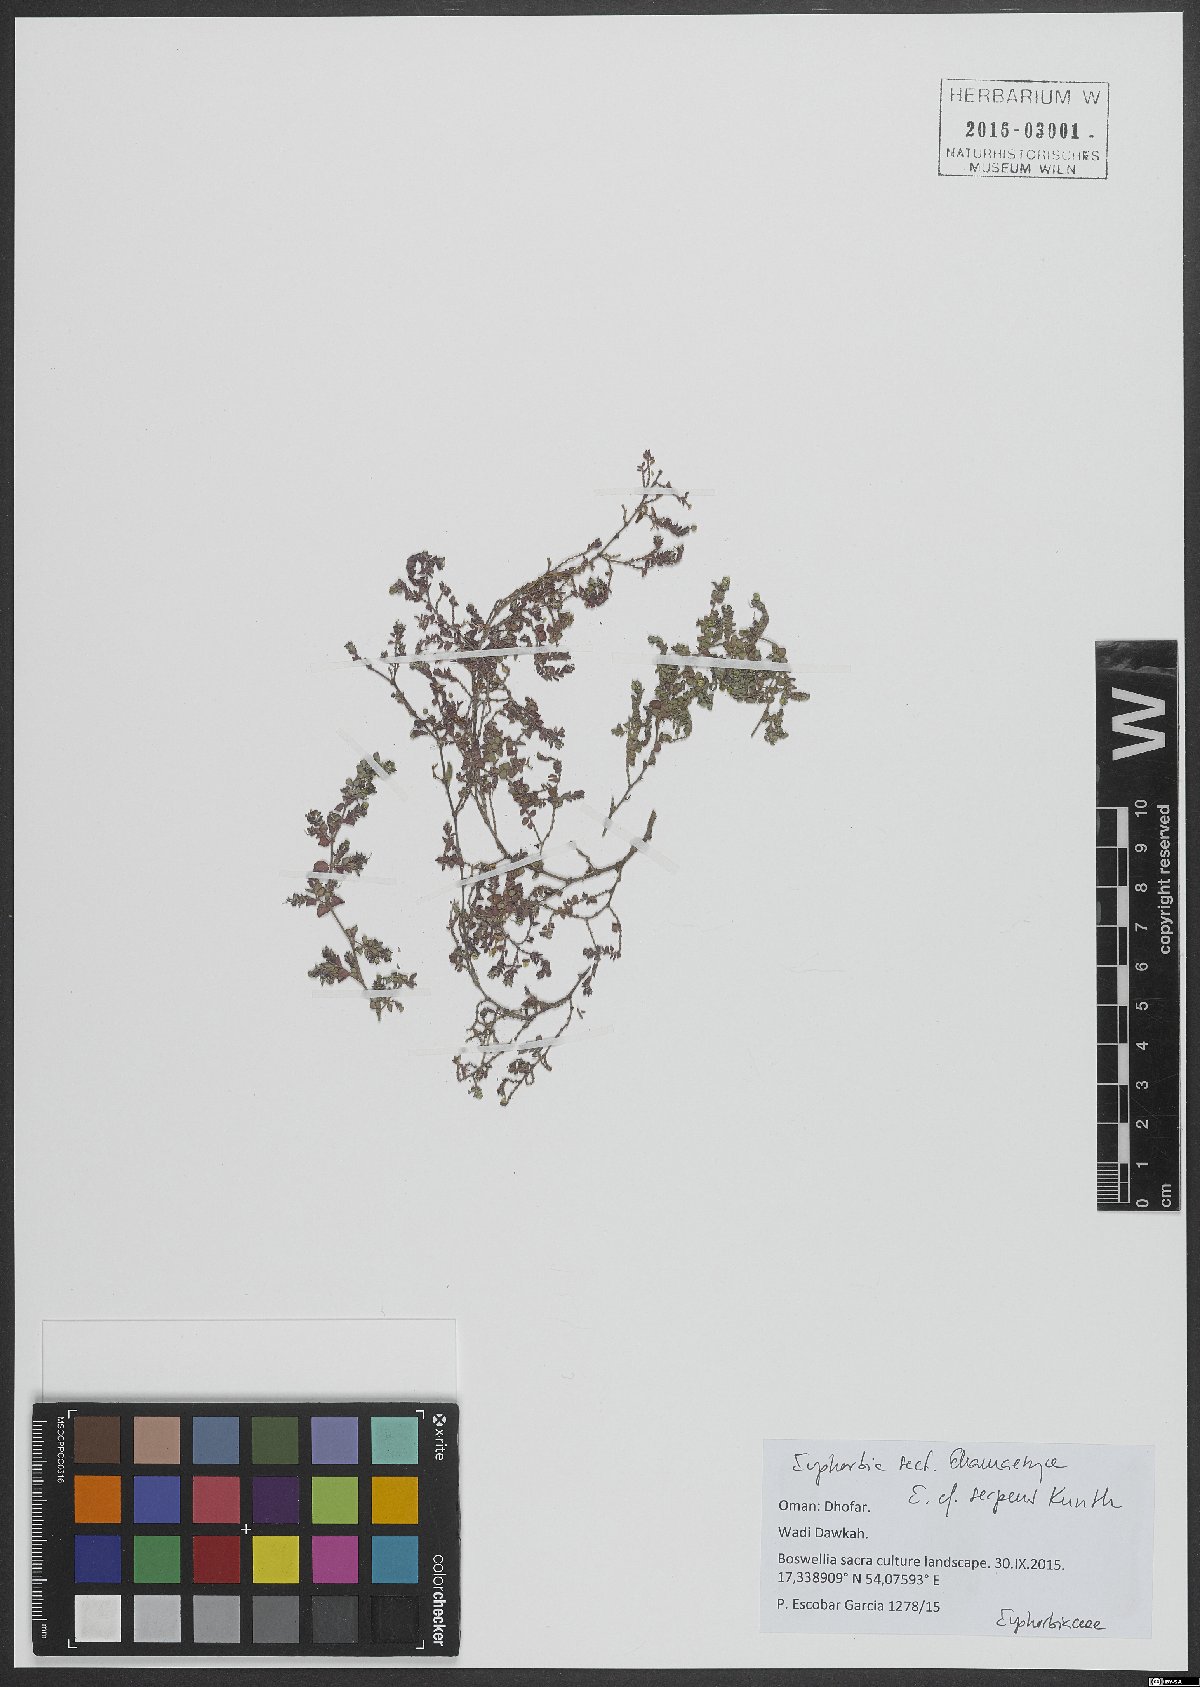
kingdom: Plantae
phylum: Tracheophyta
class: Magnoliopsida
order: Malpighiales
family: Euphorbiaceae
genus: Euphorbia
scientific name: Euphorbia serpens
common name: Matted sandmat
